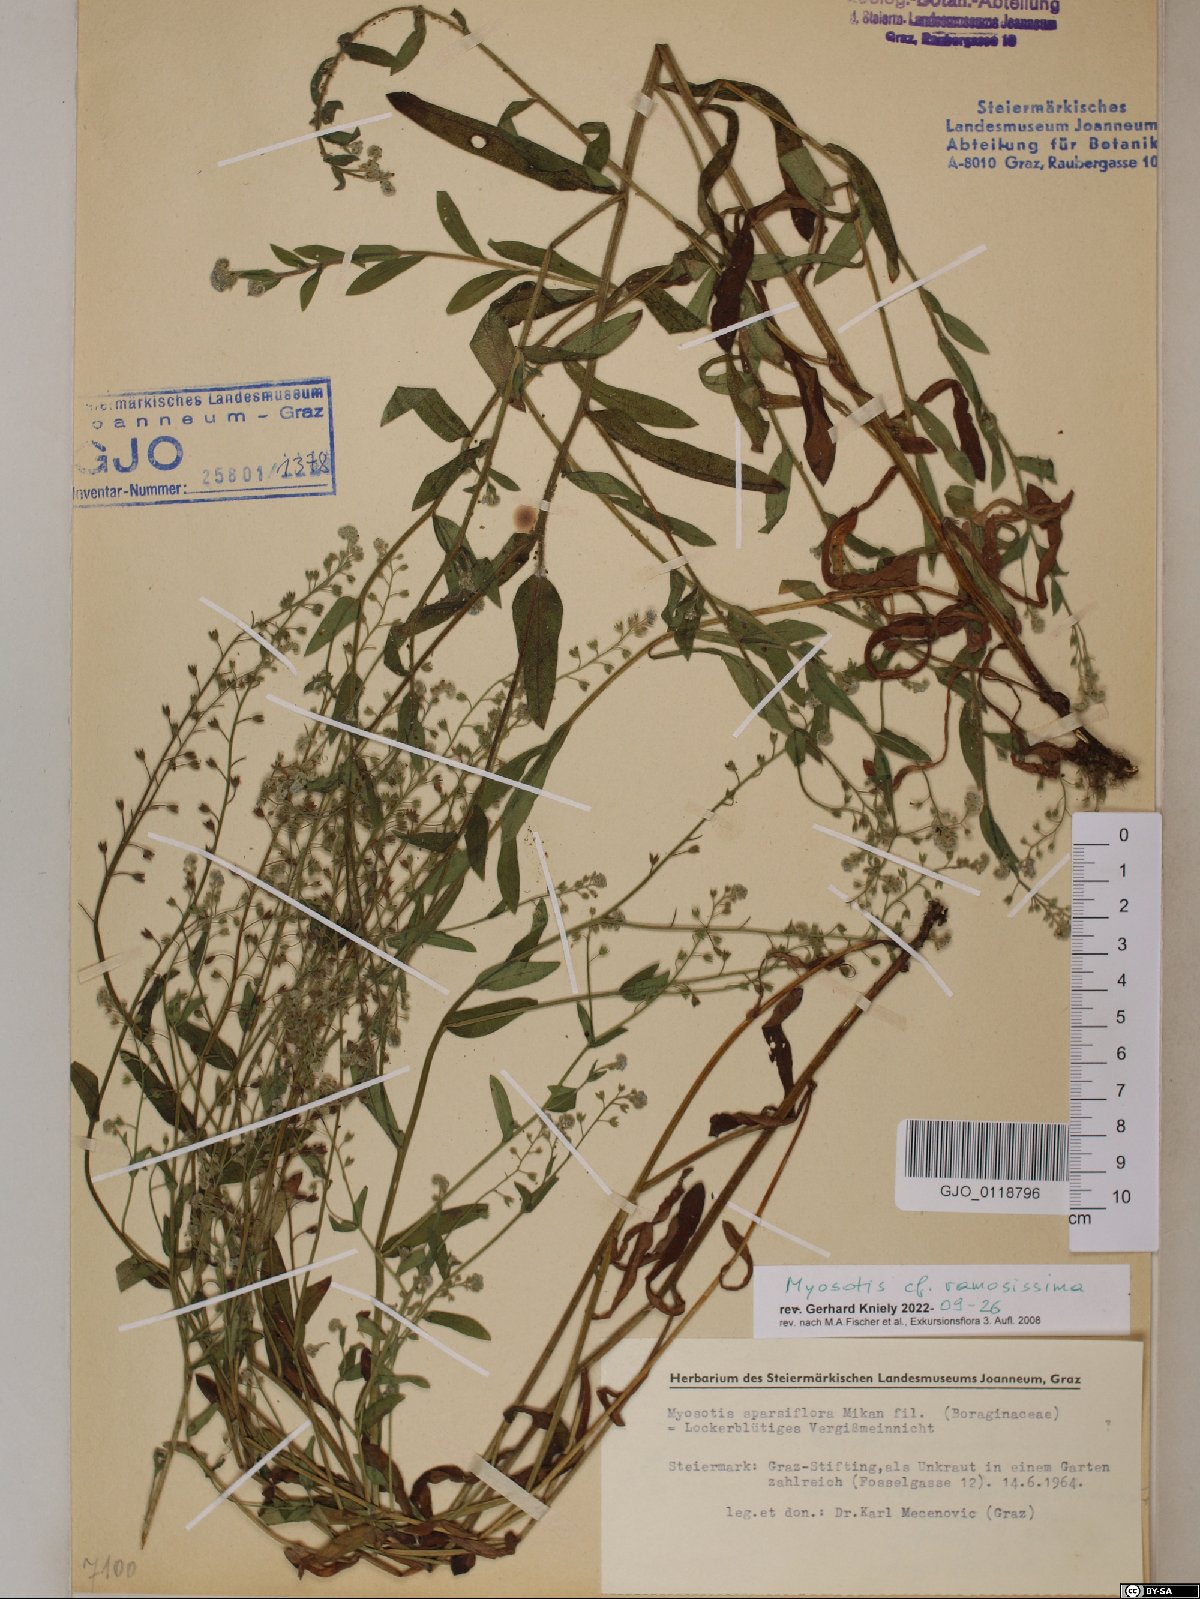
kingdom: Plantae
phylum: Tracheophyta
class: Magnoliopsida
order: Boraginales
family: Boraginaceae
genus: Myosotis
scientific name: Myosotis ramosissima
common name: Early forget-me-not
